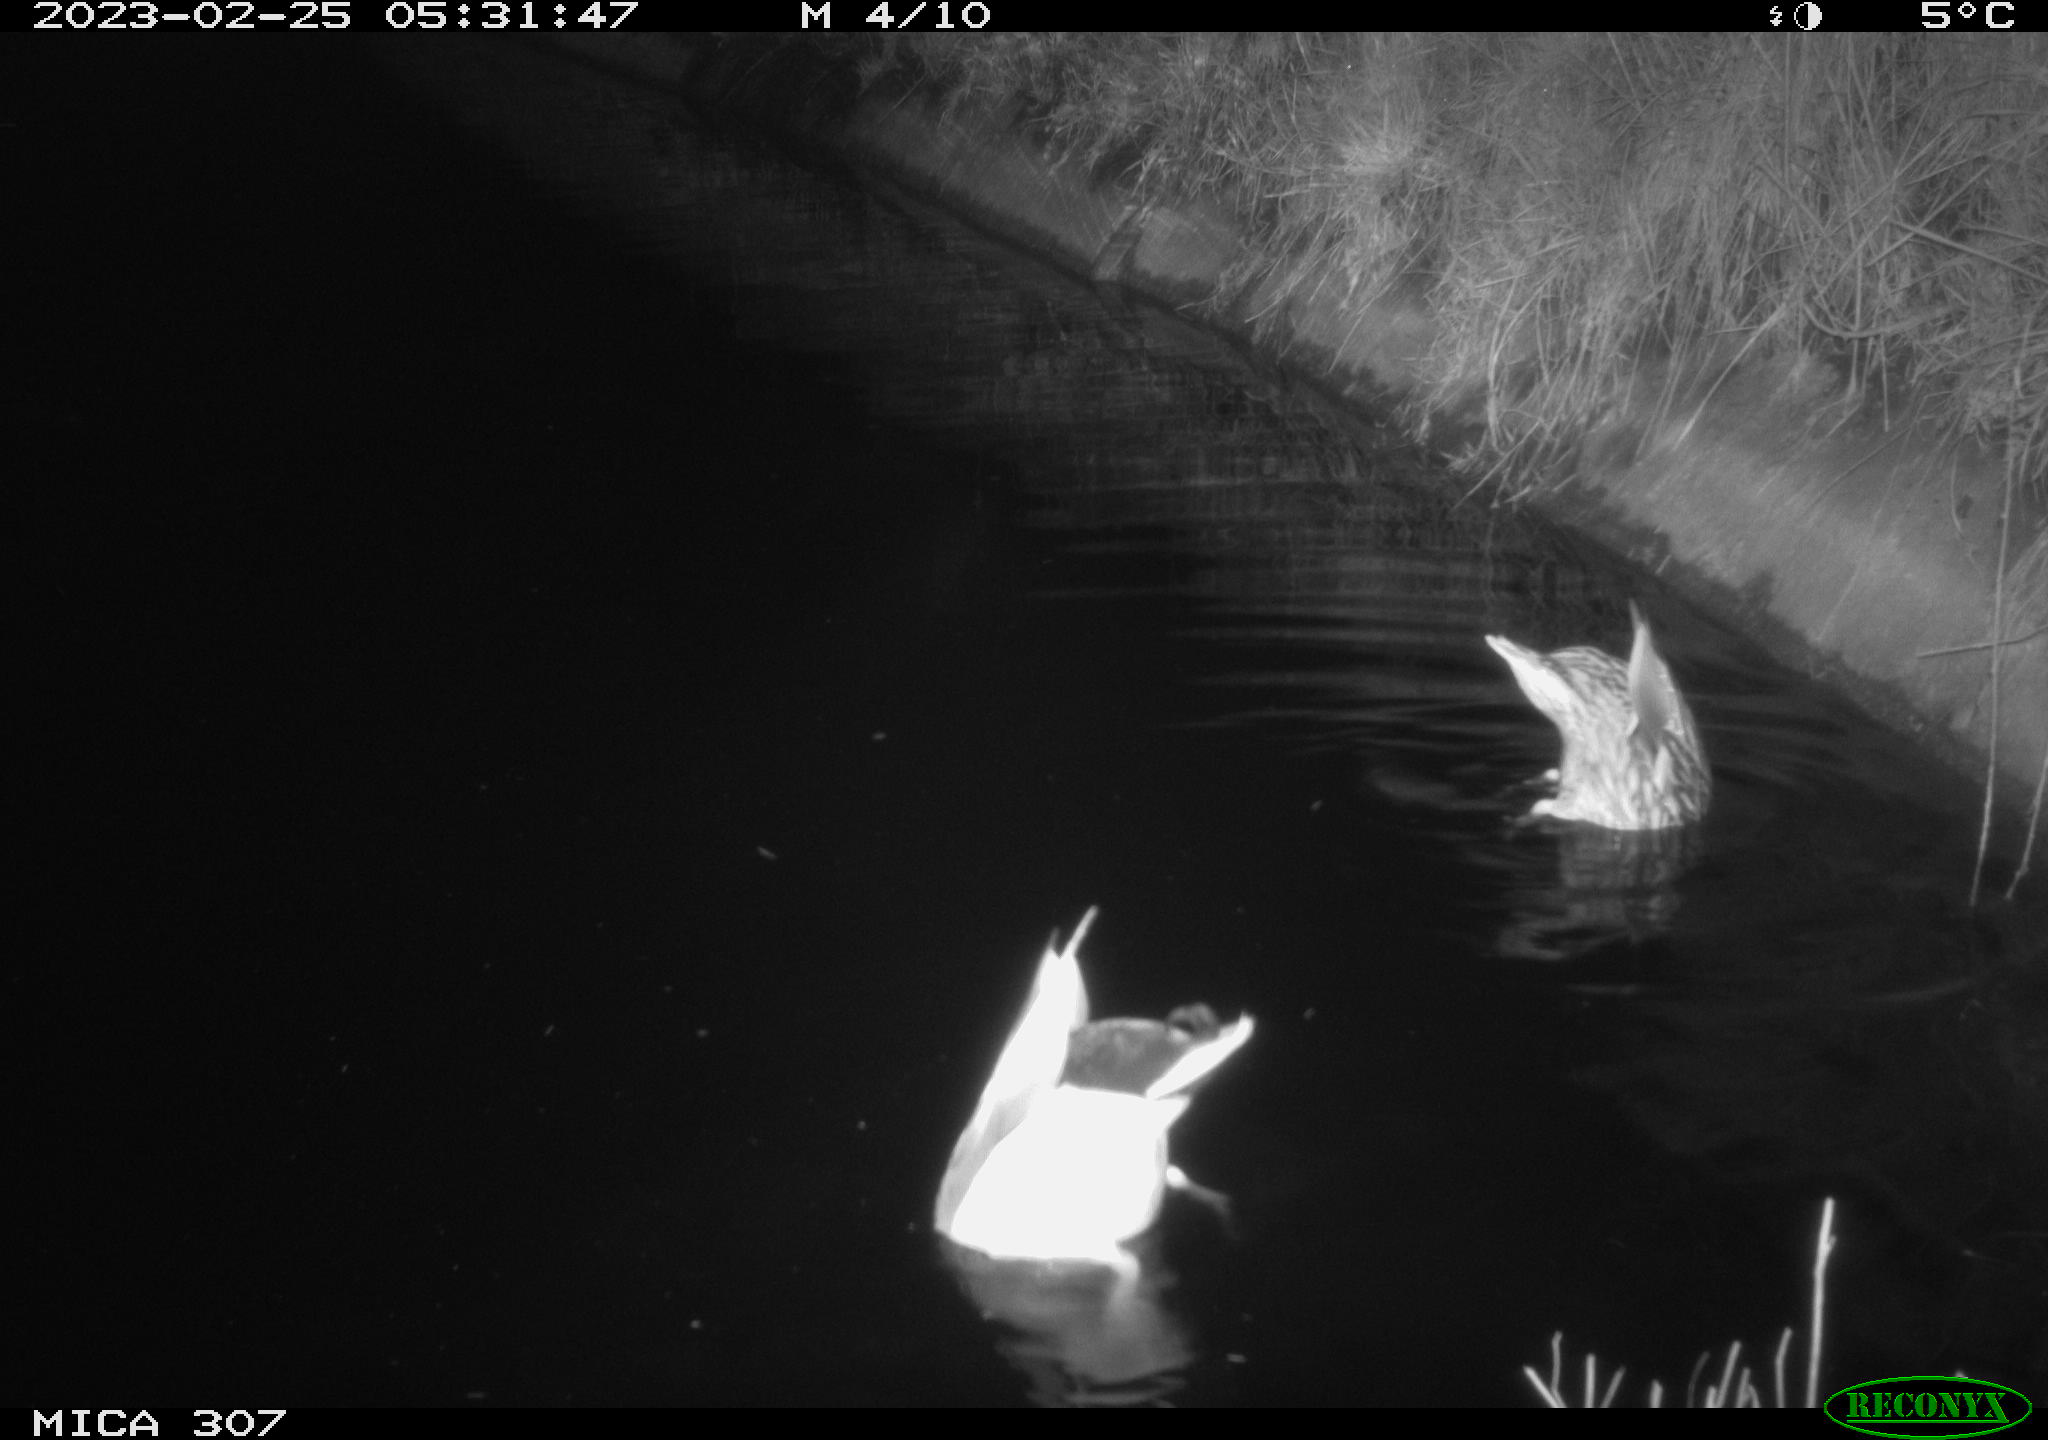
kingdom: Animalia
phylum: Chordata
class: Aves
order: Anseriformes
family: Anatidae
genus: Anas
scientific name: Anas
